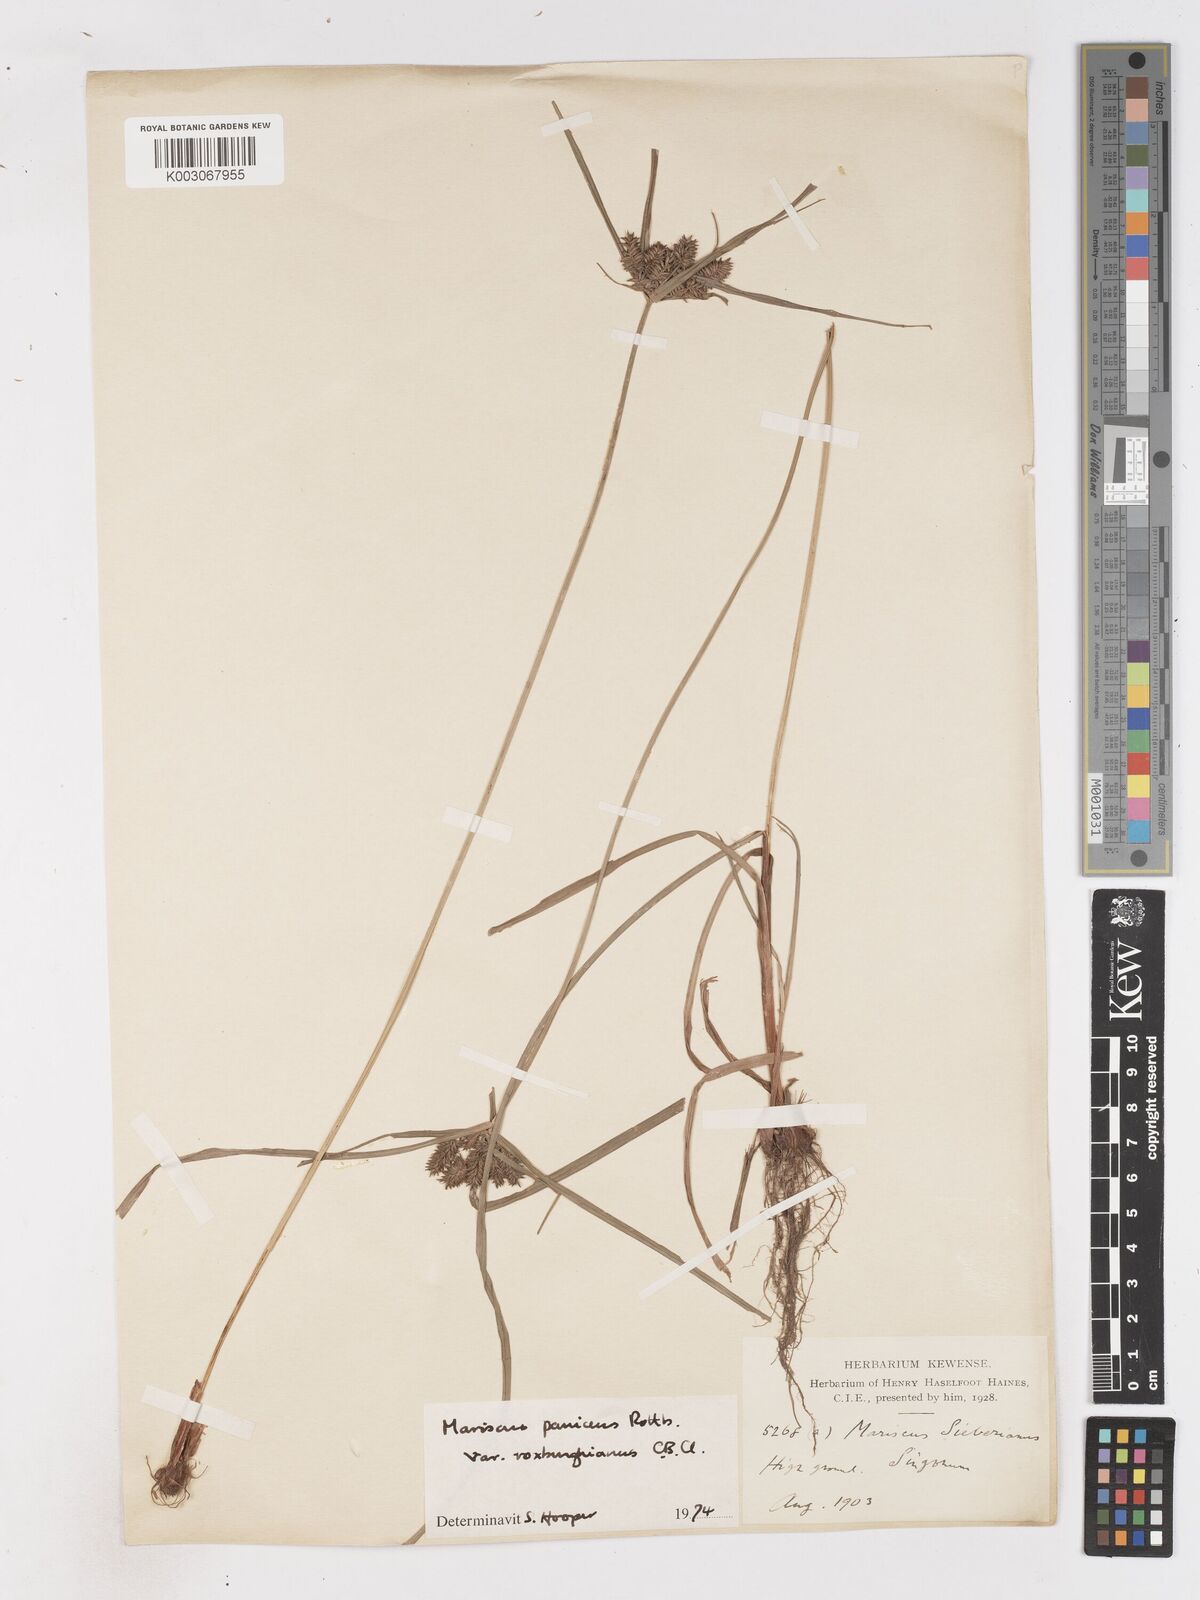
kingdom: Plantae
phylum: Tracheophyta
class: Liliopsida
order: Poales
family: Cyperaceae
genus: Cyperus
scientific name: Cyperus paniceus
